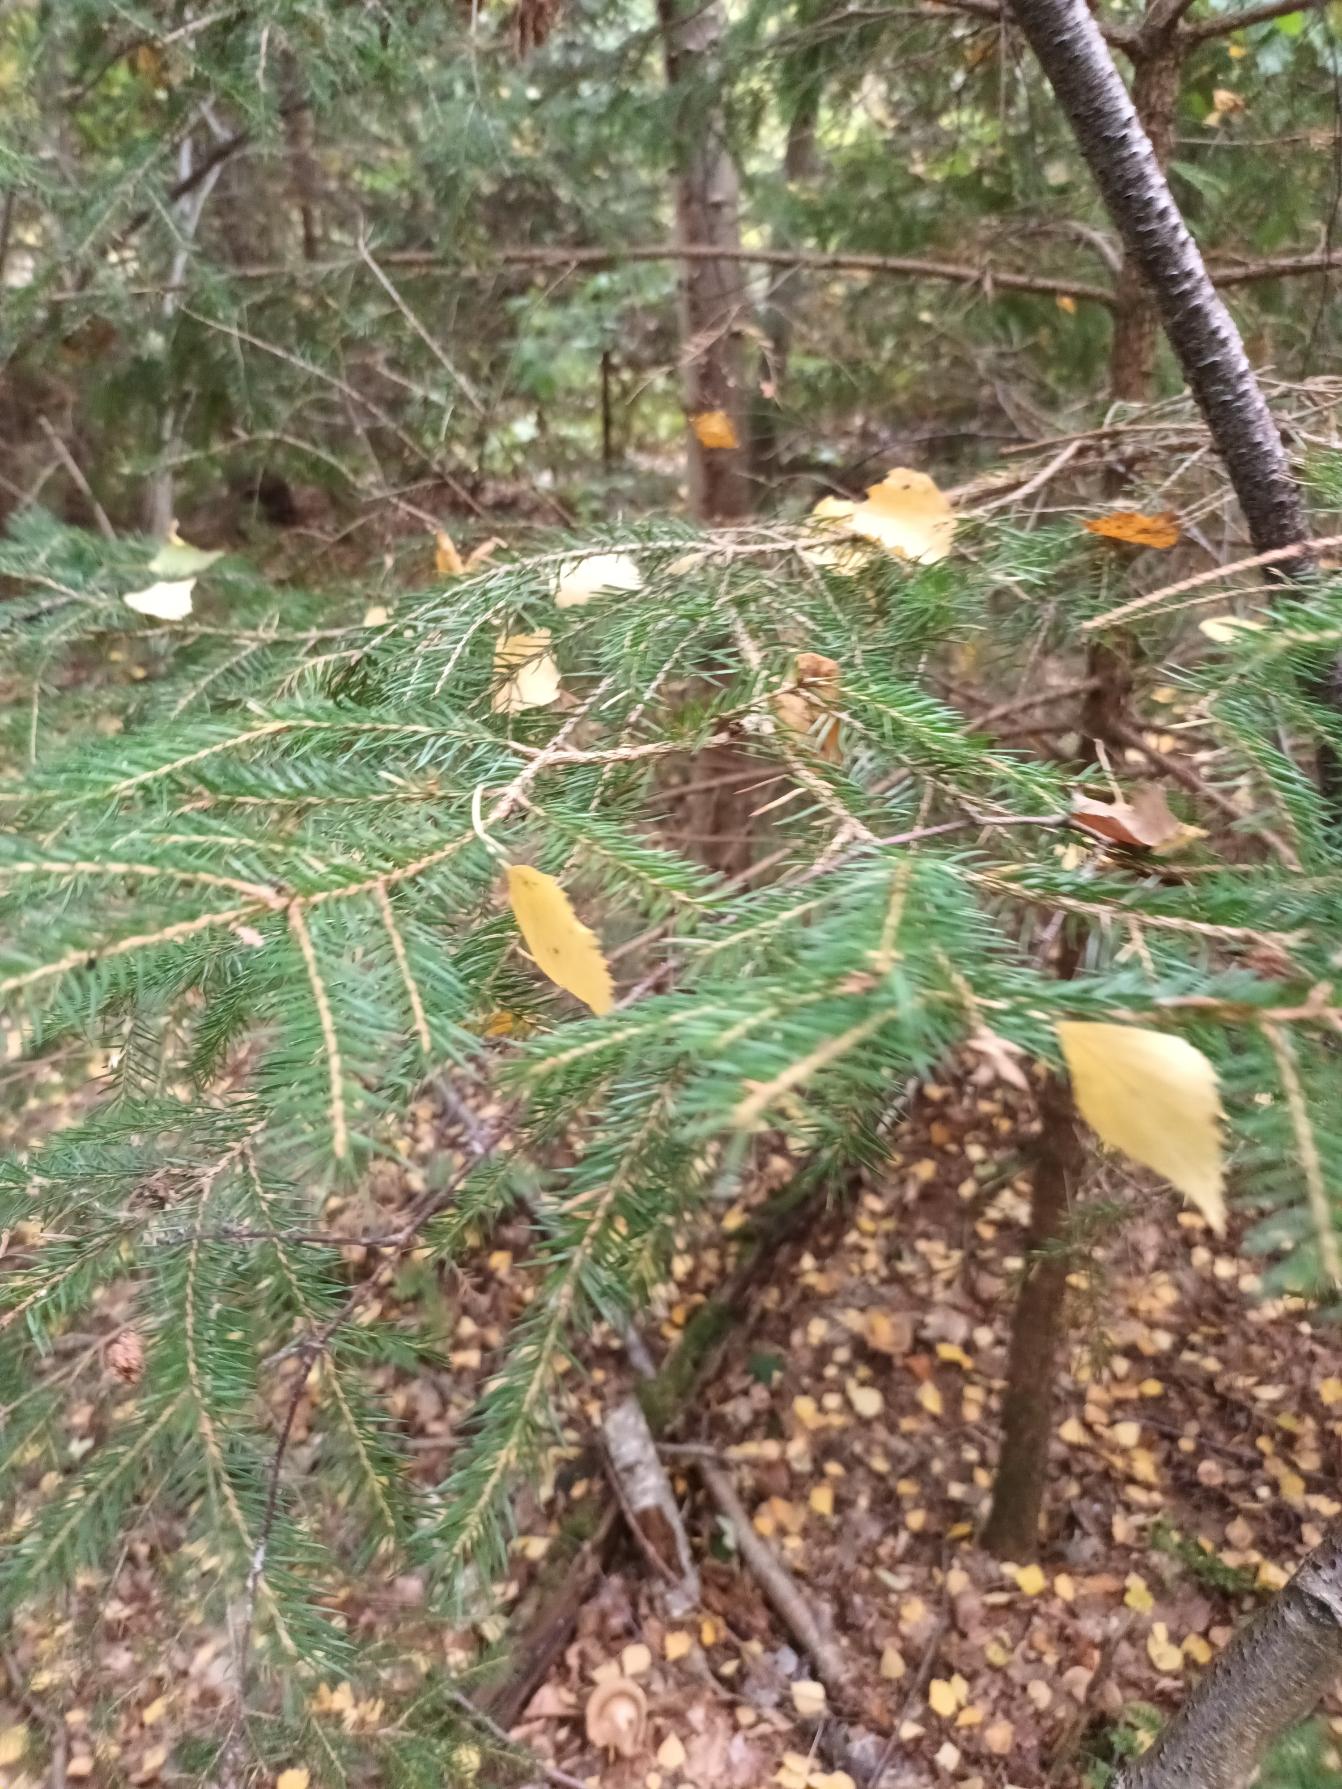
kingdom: Plantae
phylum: Tracheophyta
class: Pinopsida
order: Pinales
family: Pinaceae
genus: Picea
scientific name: Picea abies
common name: Rød-gran
